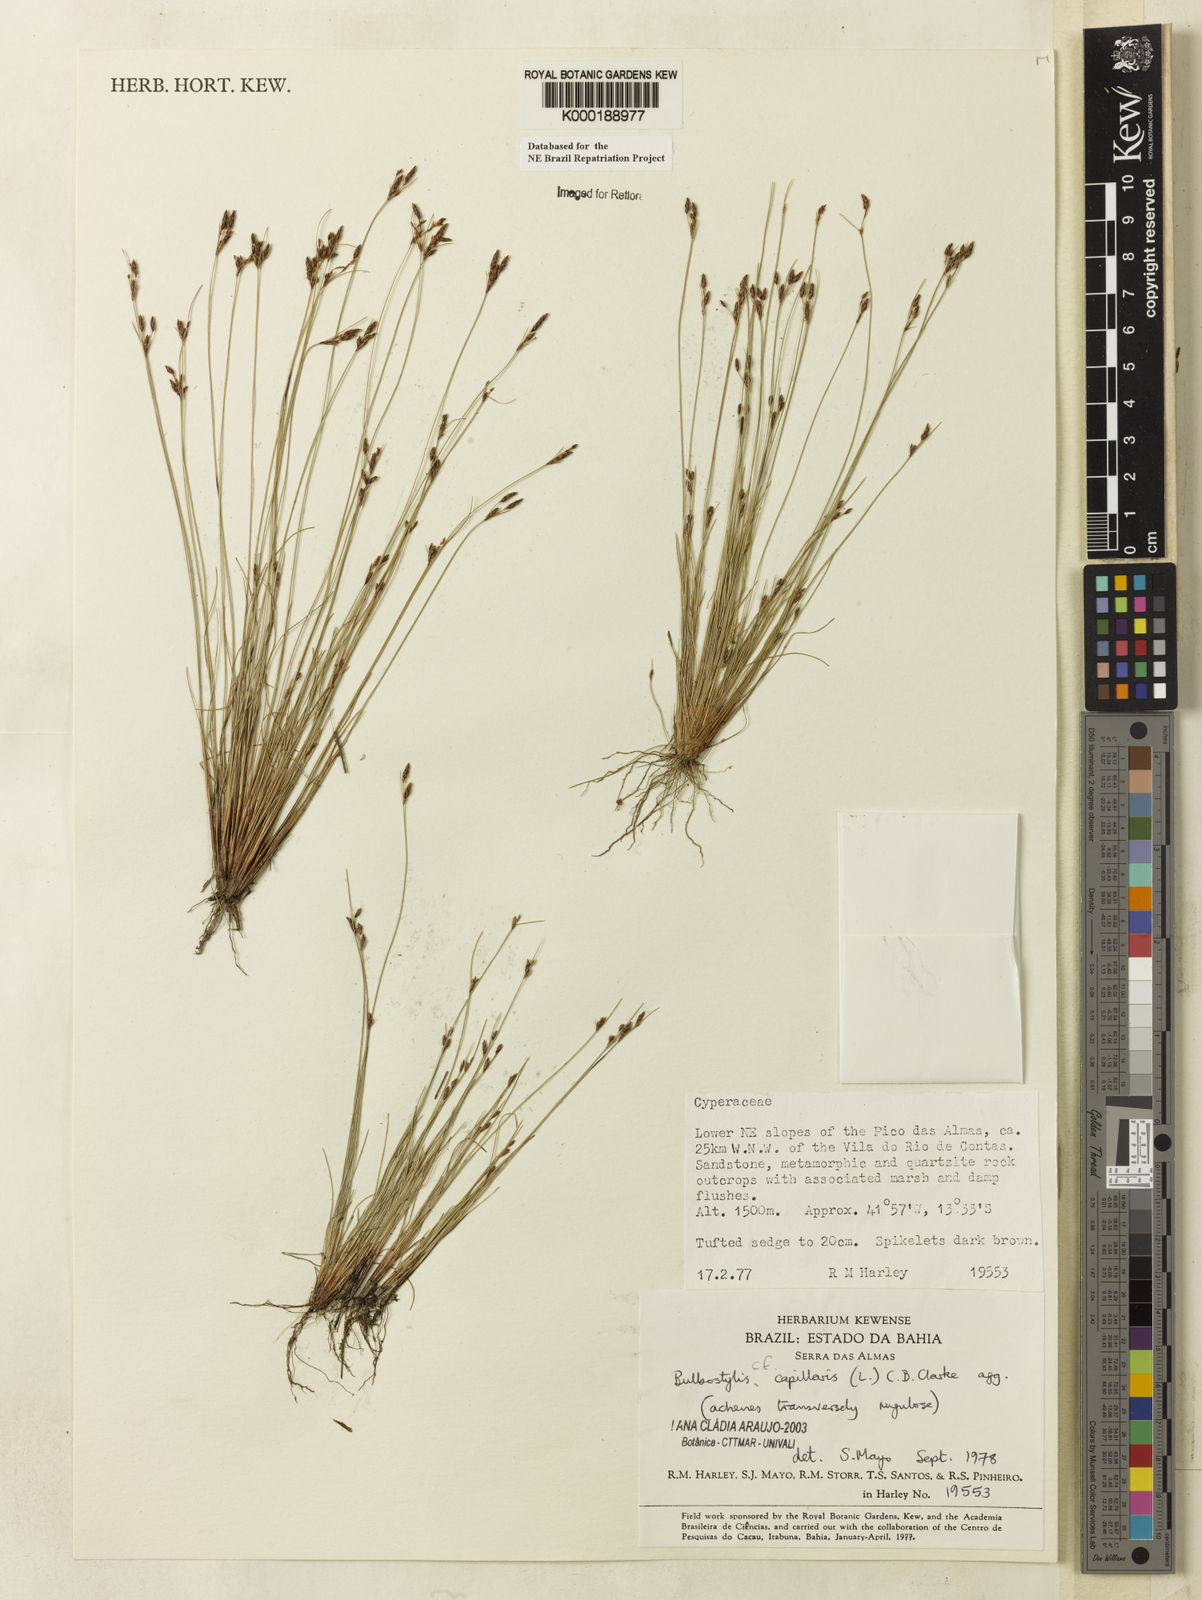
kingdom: Plantae
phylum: Tracheophyta
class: Liliopsida
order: Poales
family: Cyperaceae
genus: Bulbostylis
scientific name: Bulbostylis capillaris
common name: Densetuft hairsedge
